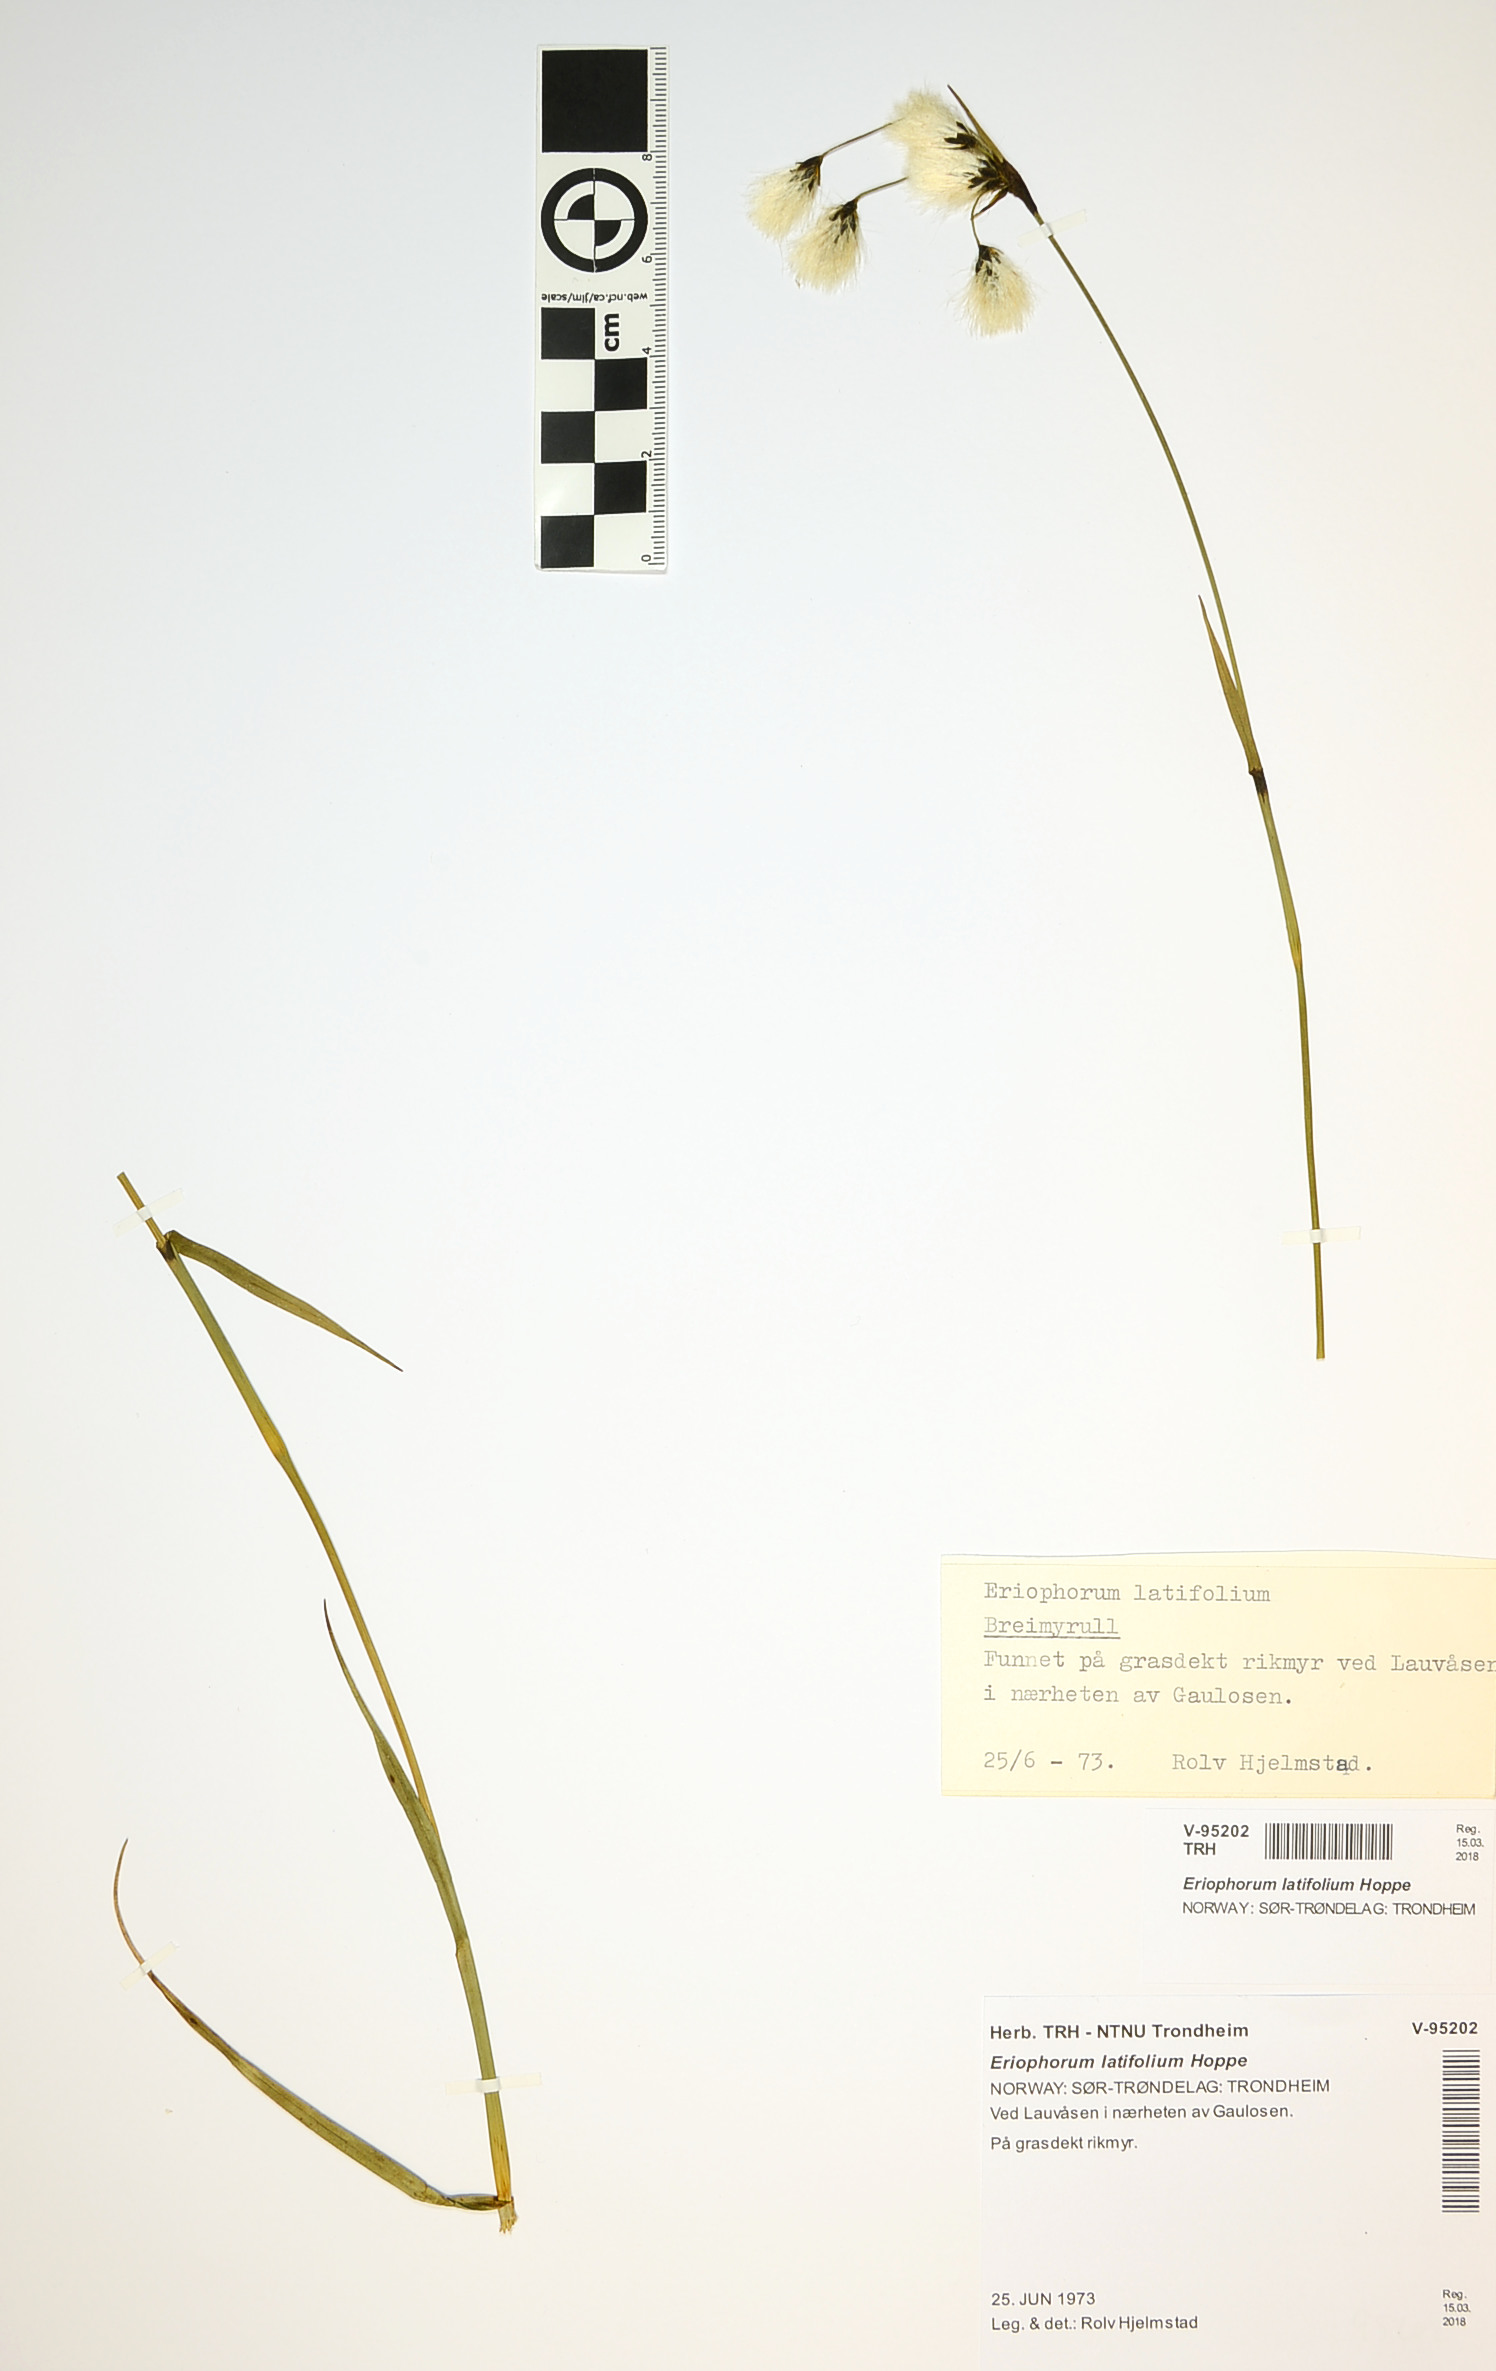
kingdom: Plantae
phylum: Tracheophyta
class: Liliopsida
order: Poales
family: Cyperaceae
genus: Eriophorum
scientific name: Eriophorum latifolium
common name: Broad-leaved cottongrass
